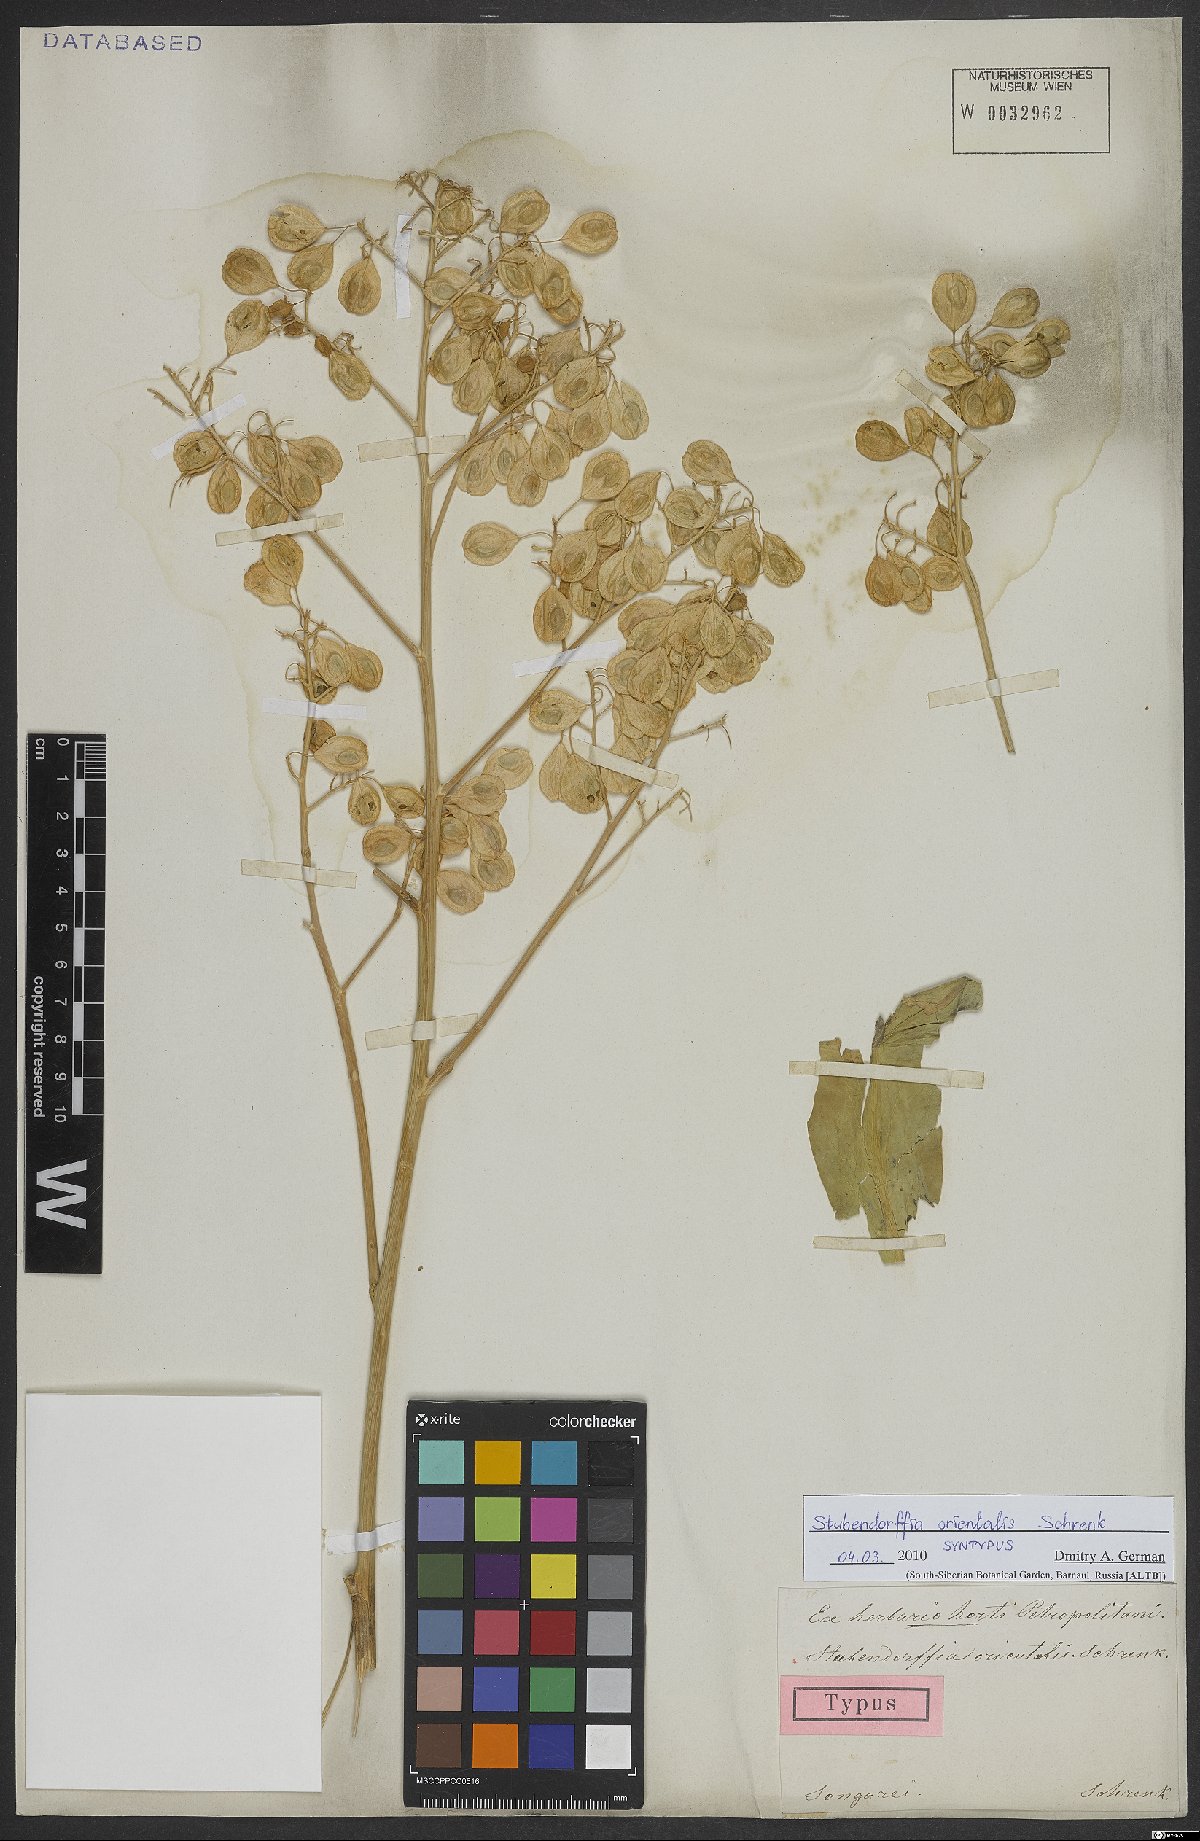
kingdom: Plantae
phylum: Tracheophyta
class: Magnoliopsida
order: Brassicales
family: Brassicaceae
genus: Lepidium
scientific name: Lepidium orientale
